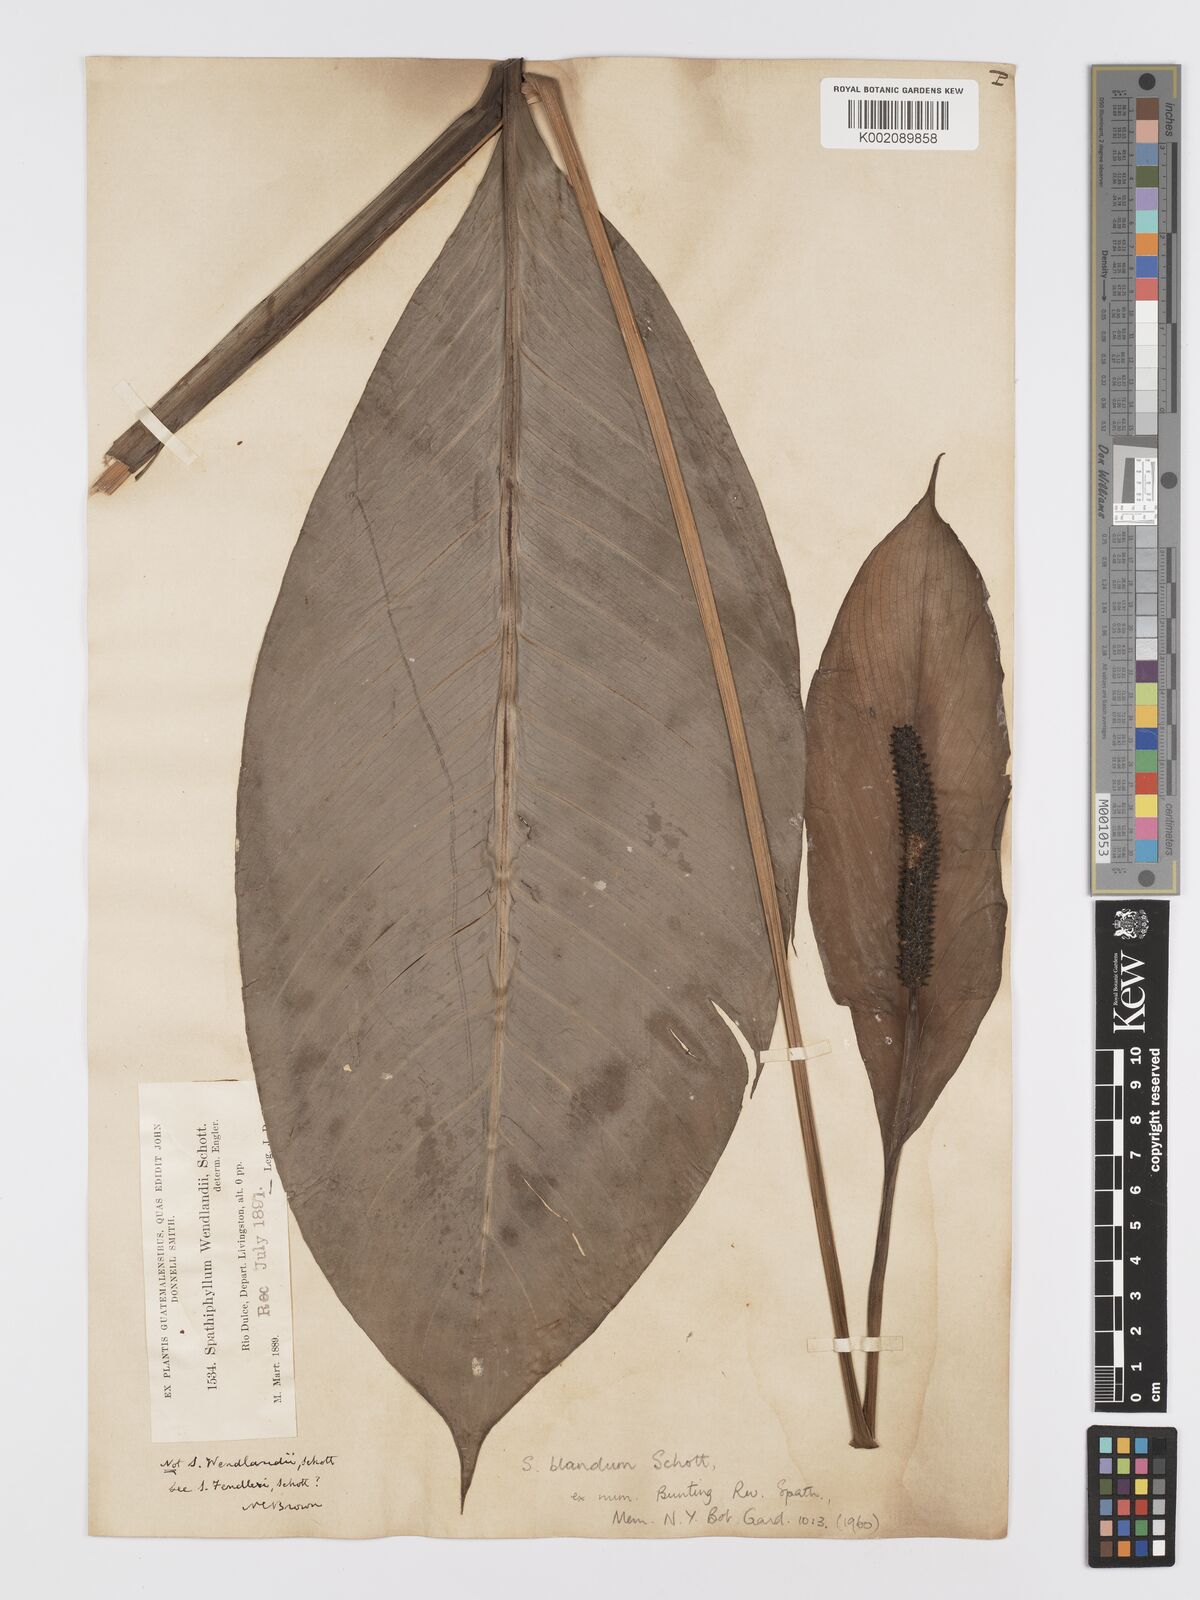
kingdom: Plantae
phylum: Tracheophyta
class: Liliopsida
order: Alismatales
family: Araceae
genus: Spathiphyllum
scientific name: Spathiphyllum blandum
